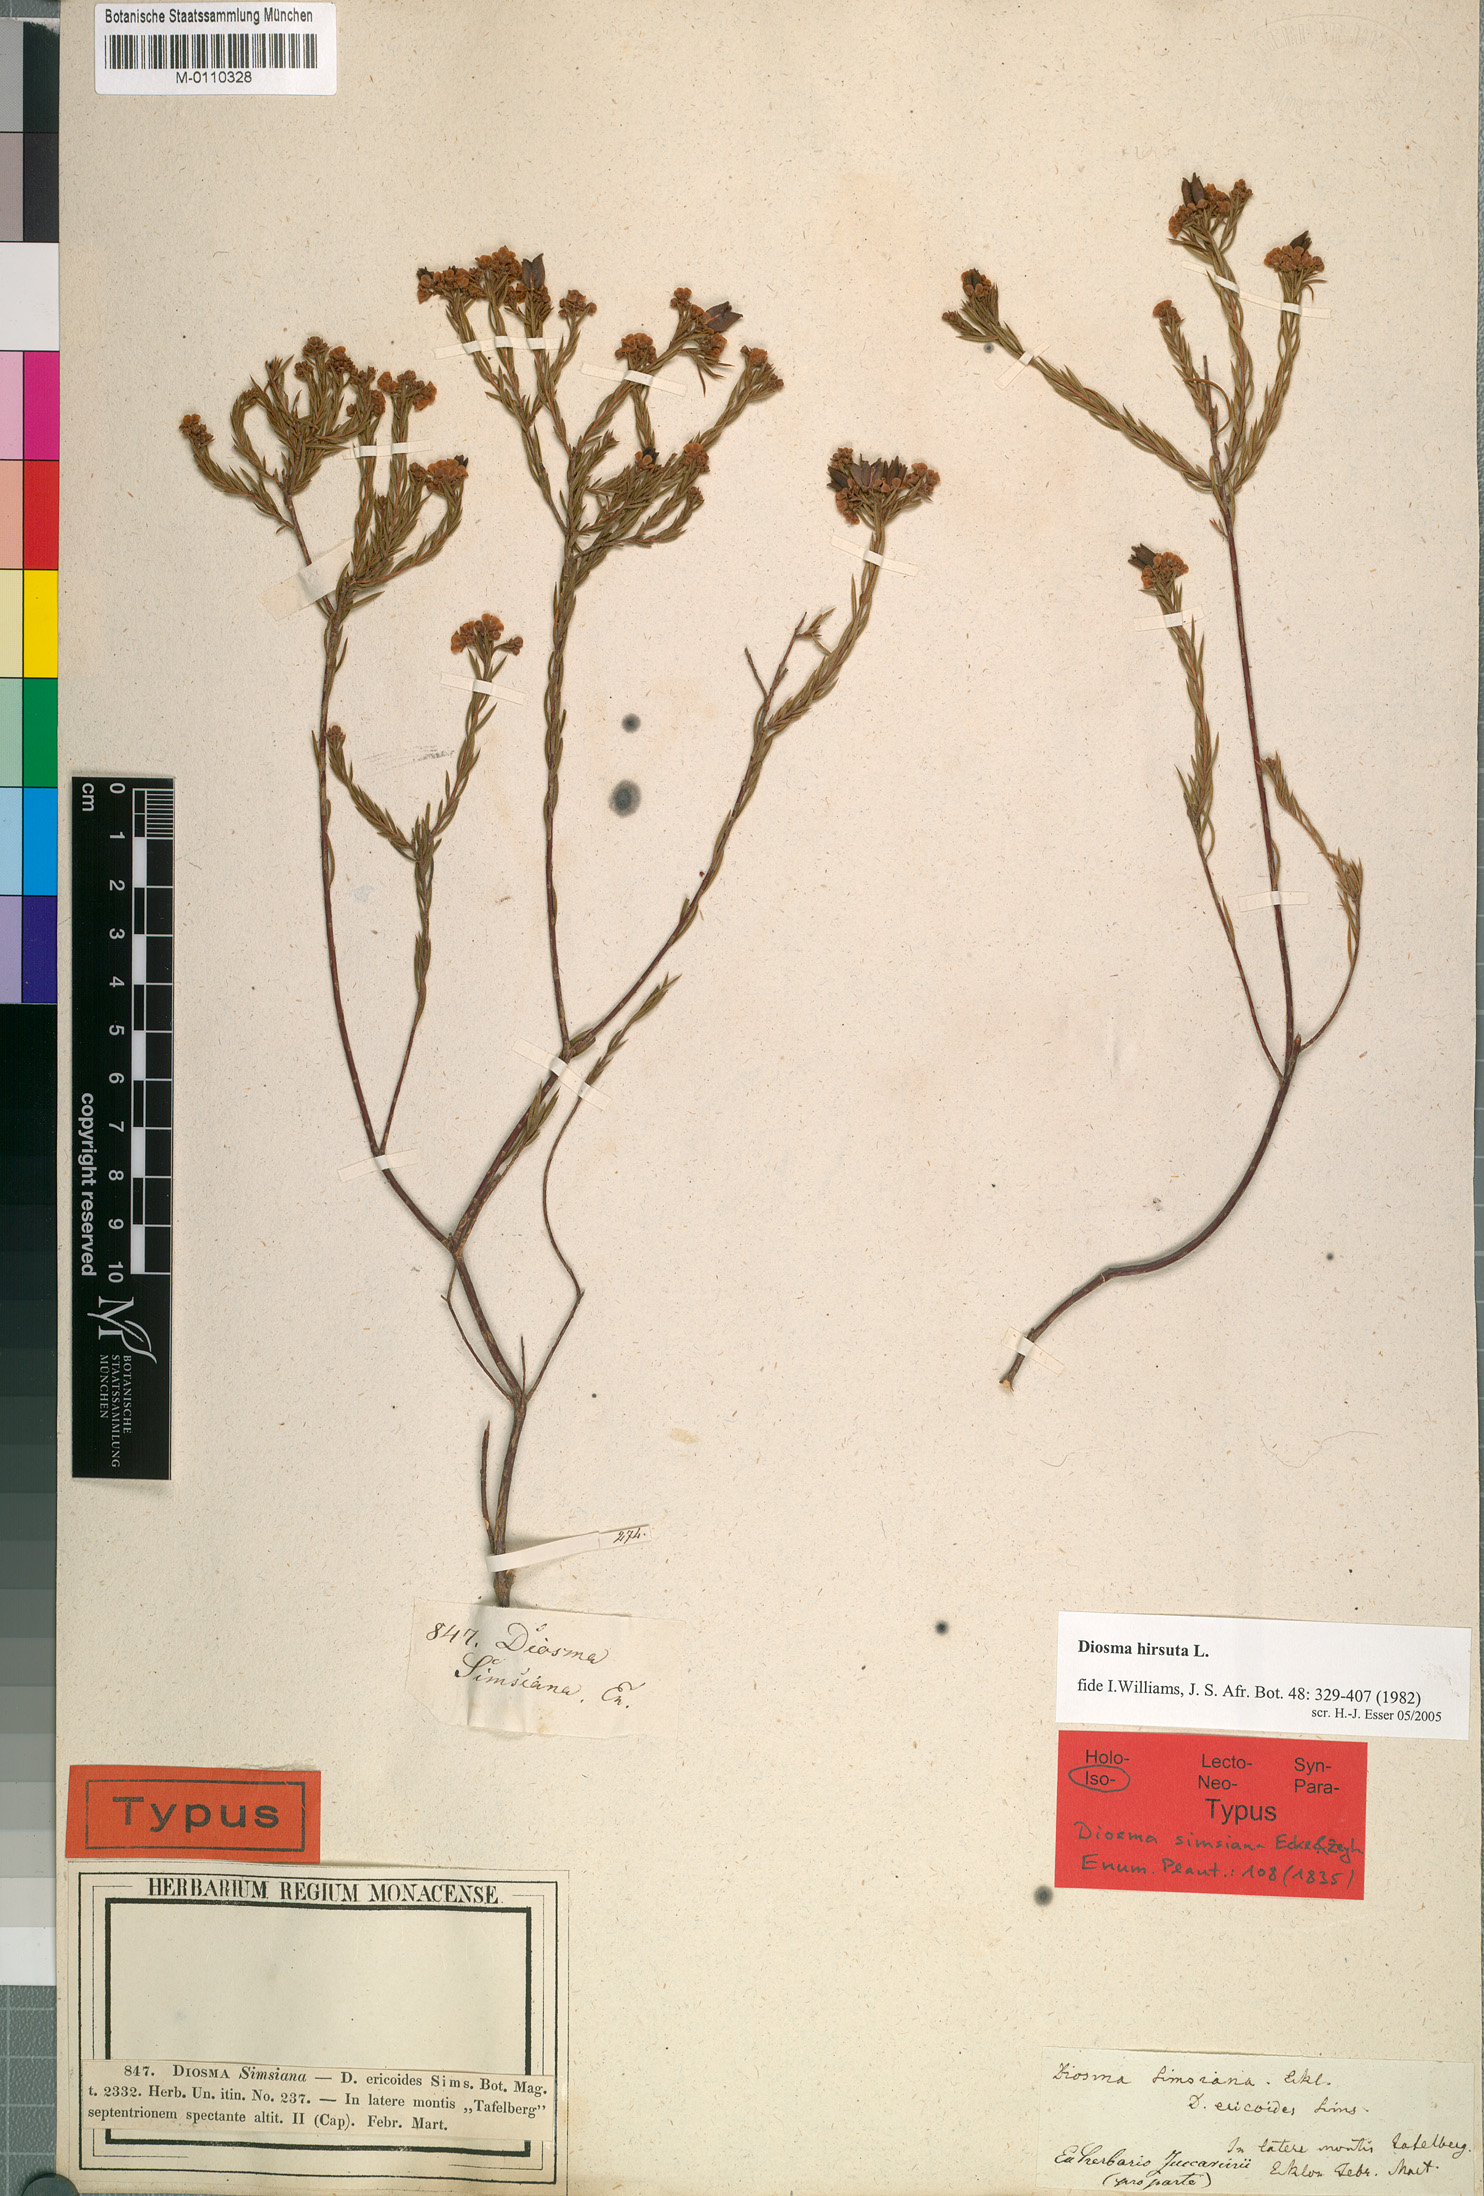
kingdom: Plantae
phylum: Tracheophyta
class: Magnoliopsida
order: Sapindales
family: Rutaceae
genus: Diosma
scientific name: Diosma hirsuta
